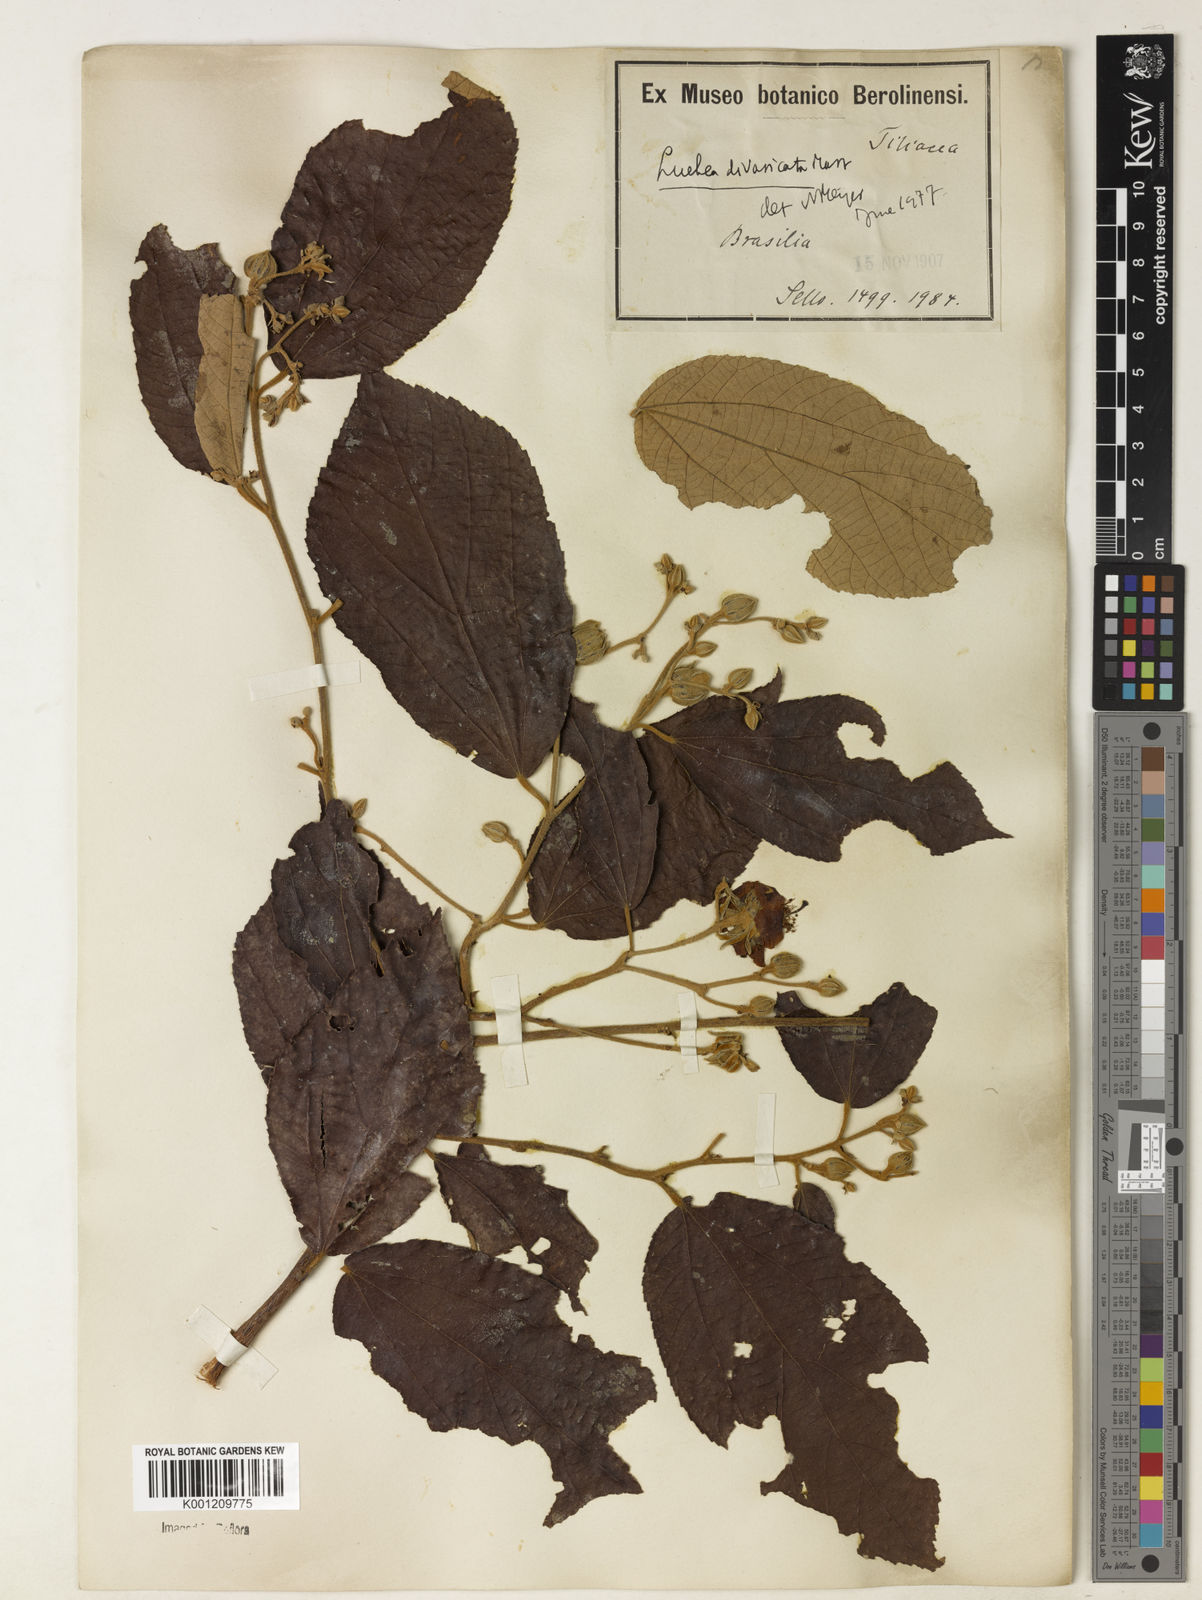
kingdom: Plantae
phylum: Tracheophyta
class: Magnoliopsida
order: Malvales
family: Malvaceae
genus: Luehea
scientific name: Luehea divaricata
